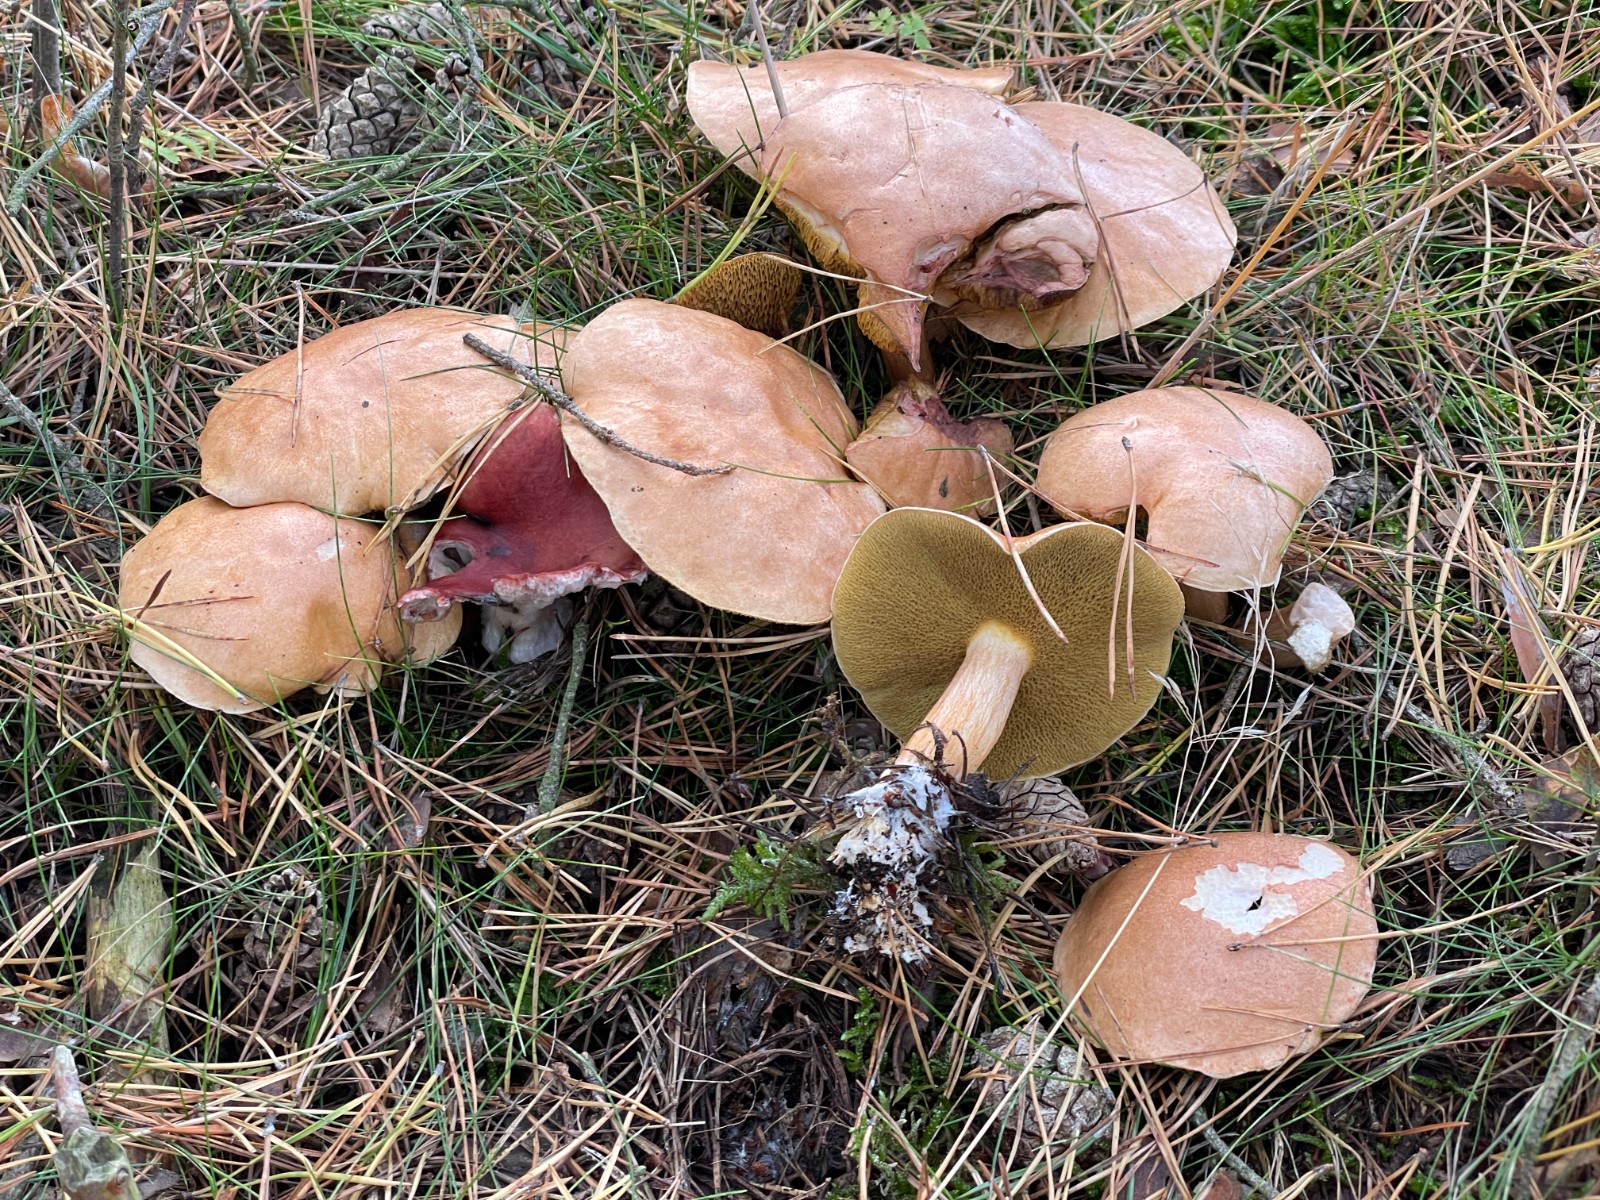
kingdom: Fungi
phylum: Basidiomycota
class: Agaricomycetes
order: Boletales
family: Suillaceae
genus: Suillus
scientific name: Suillus bovinus
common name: grovporet slimrørhat
